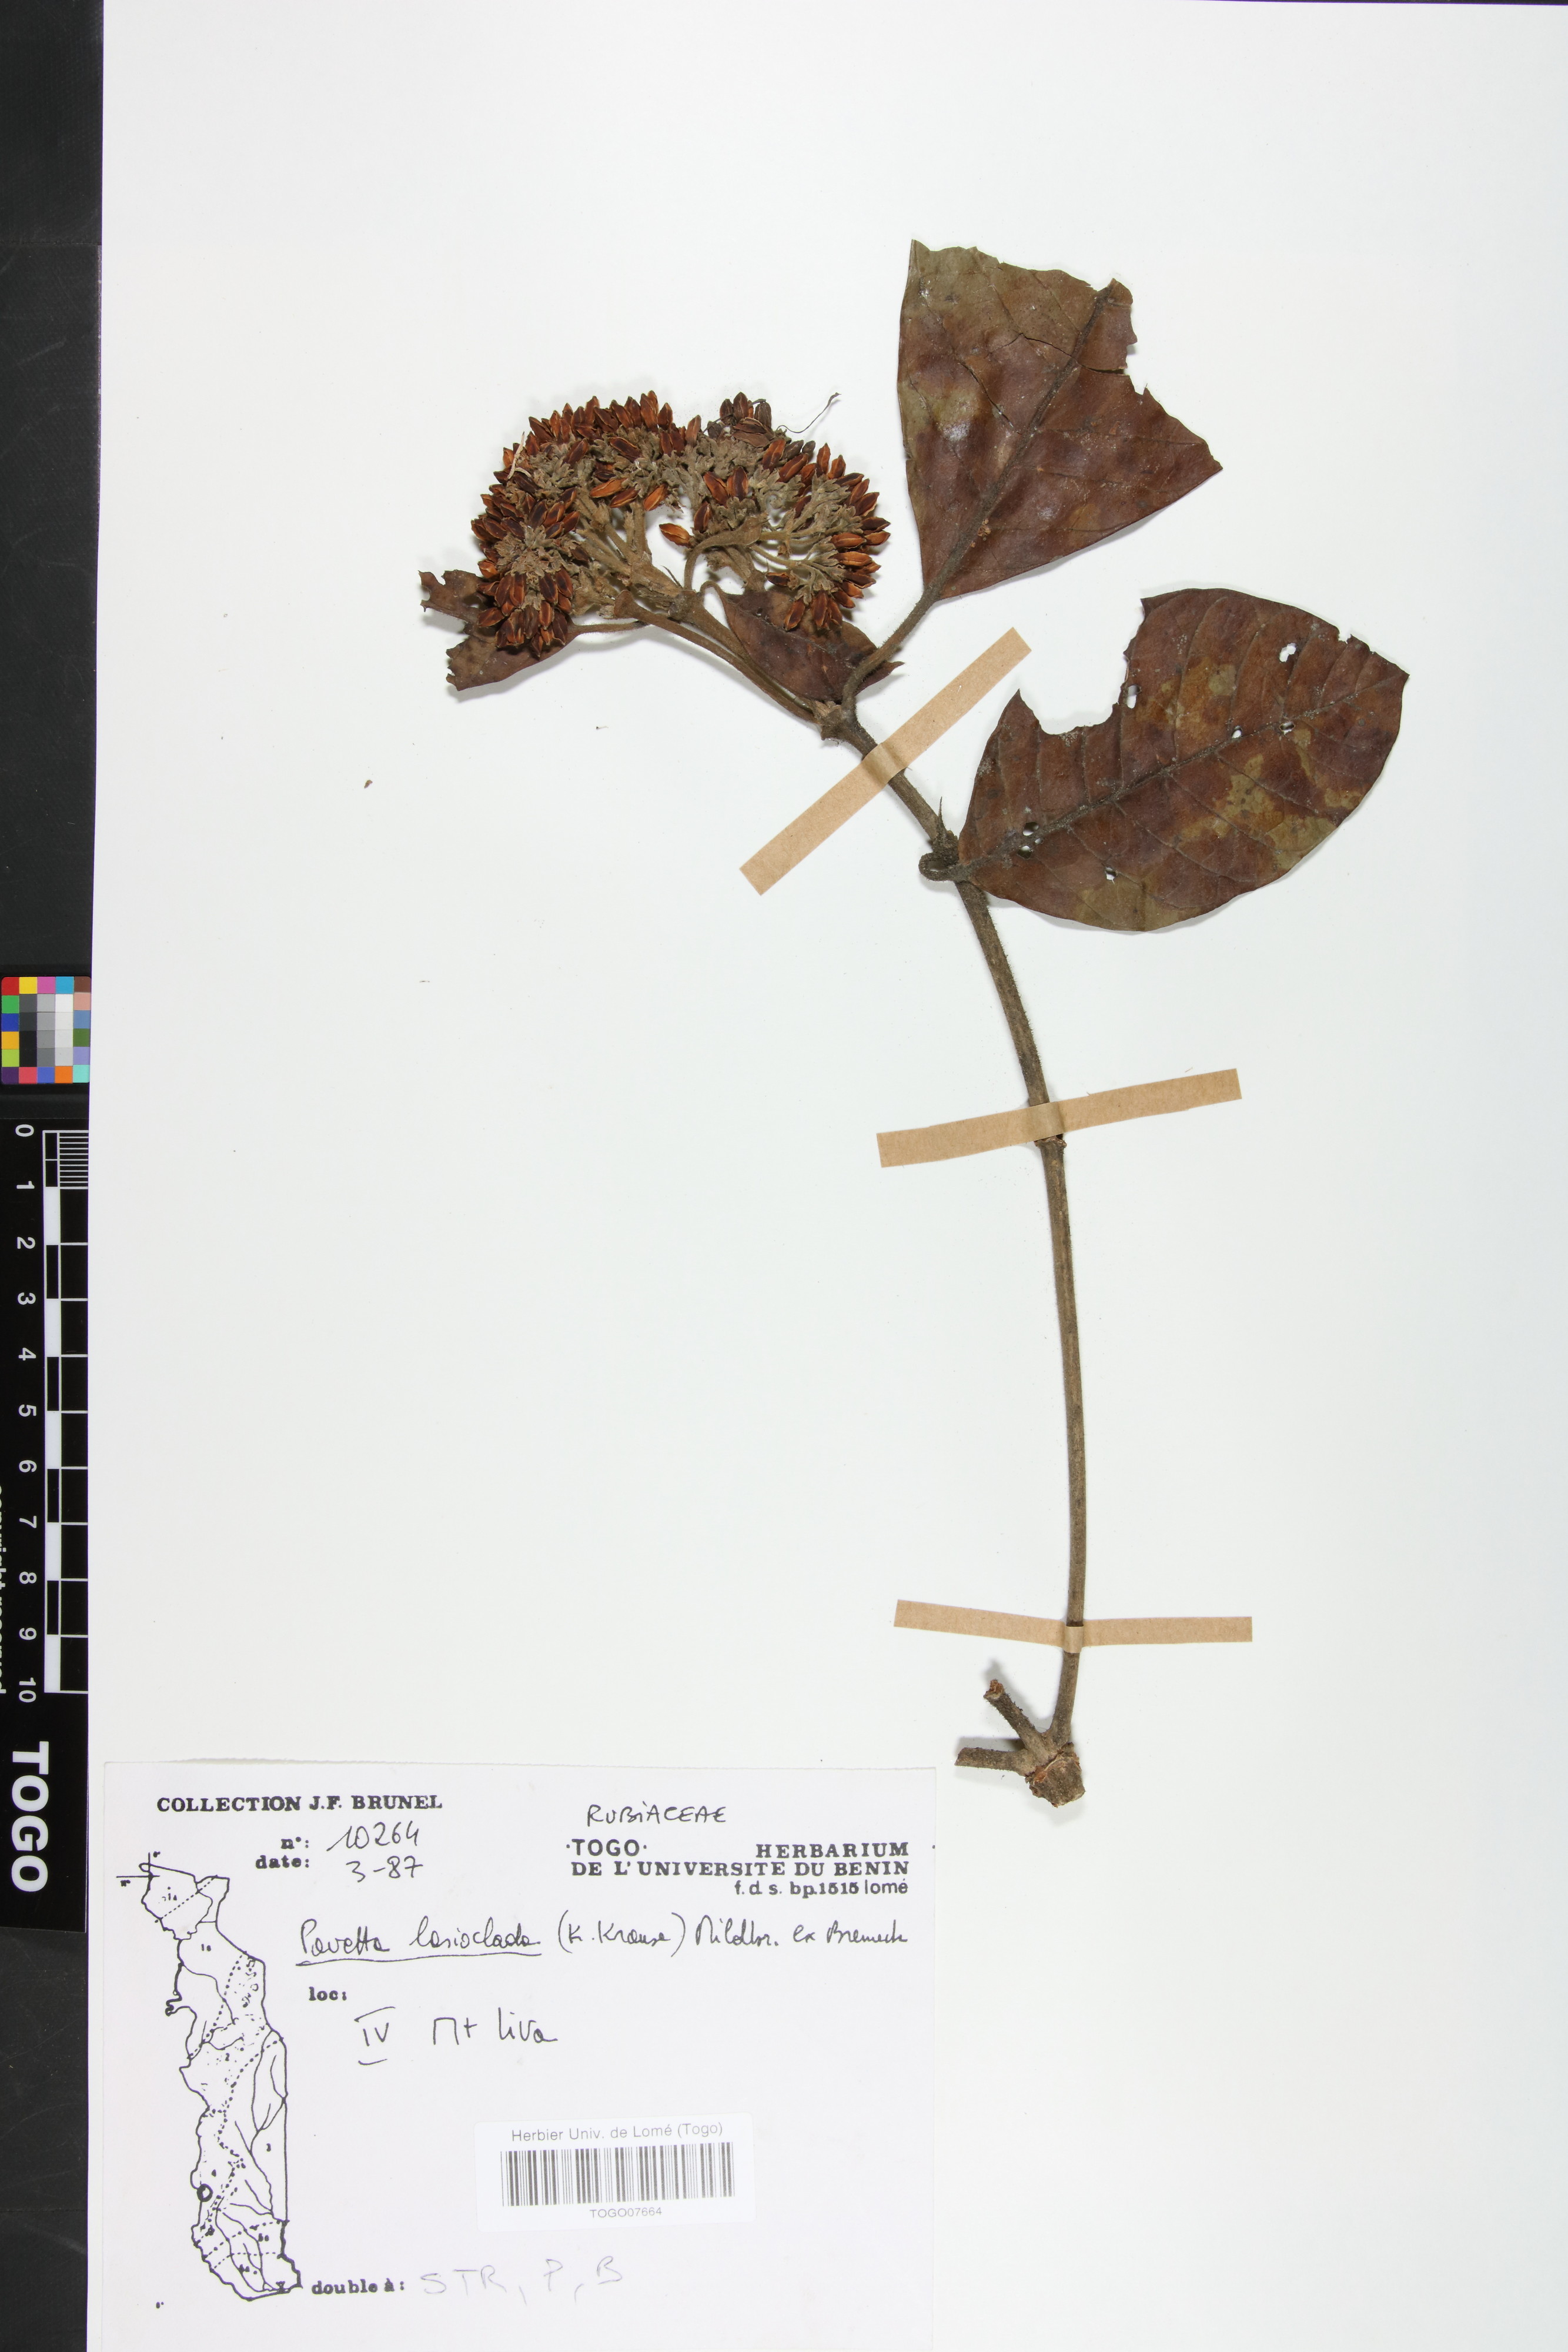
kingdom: Plantae
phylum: Tracheophyta
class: Magnoliopsida
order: Gentianales
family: Rubiaceae
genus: Pavetta
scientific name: Pavetta lasioclada
